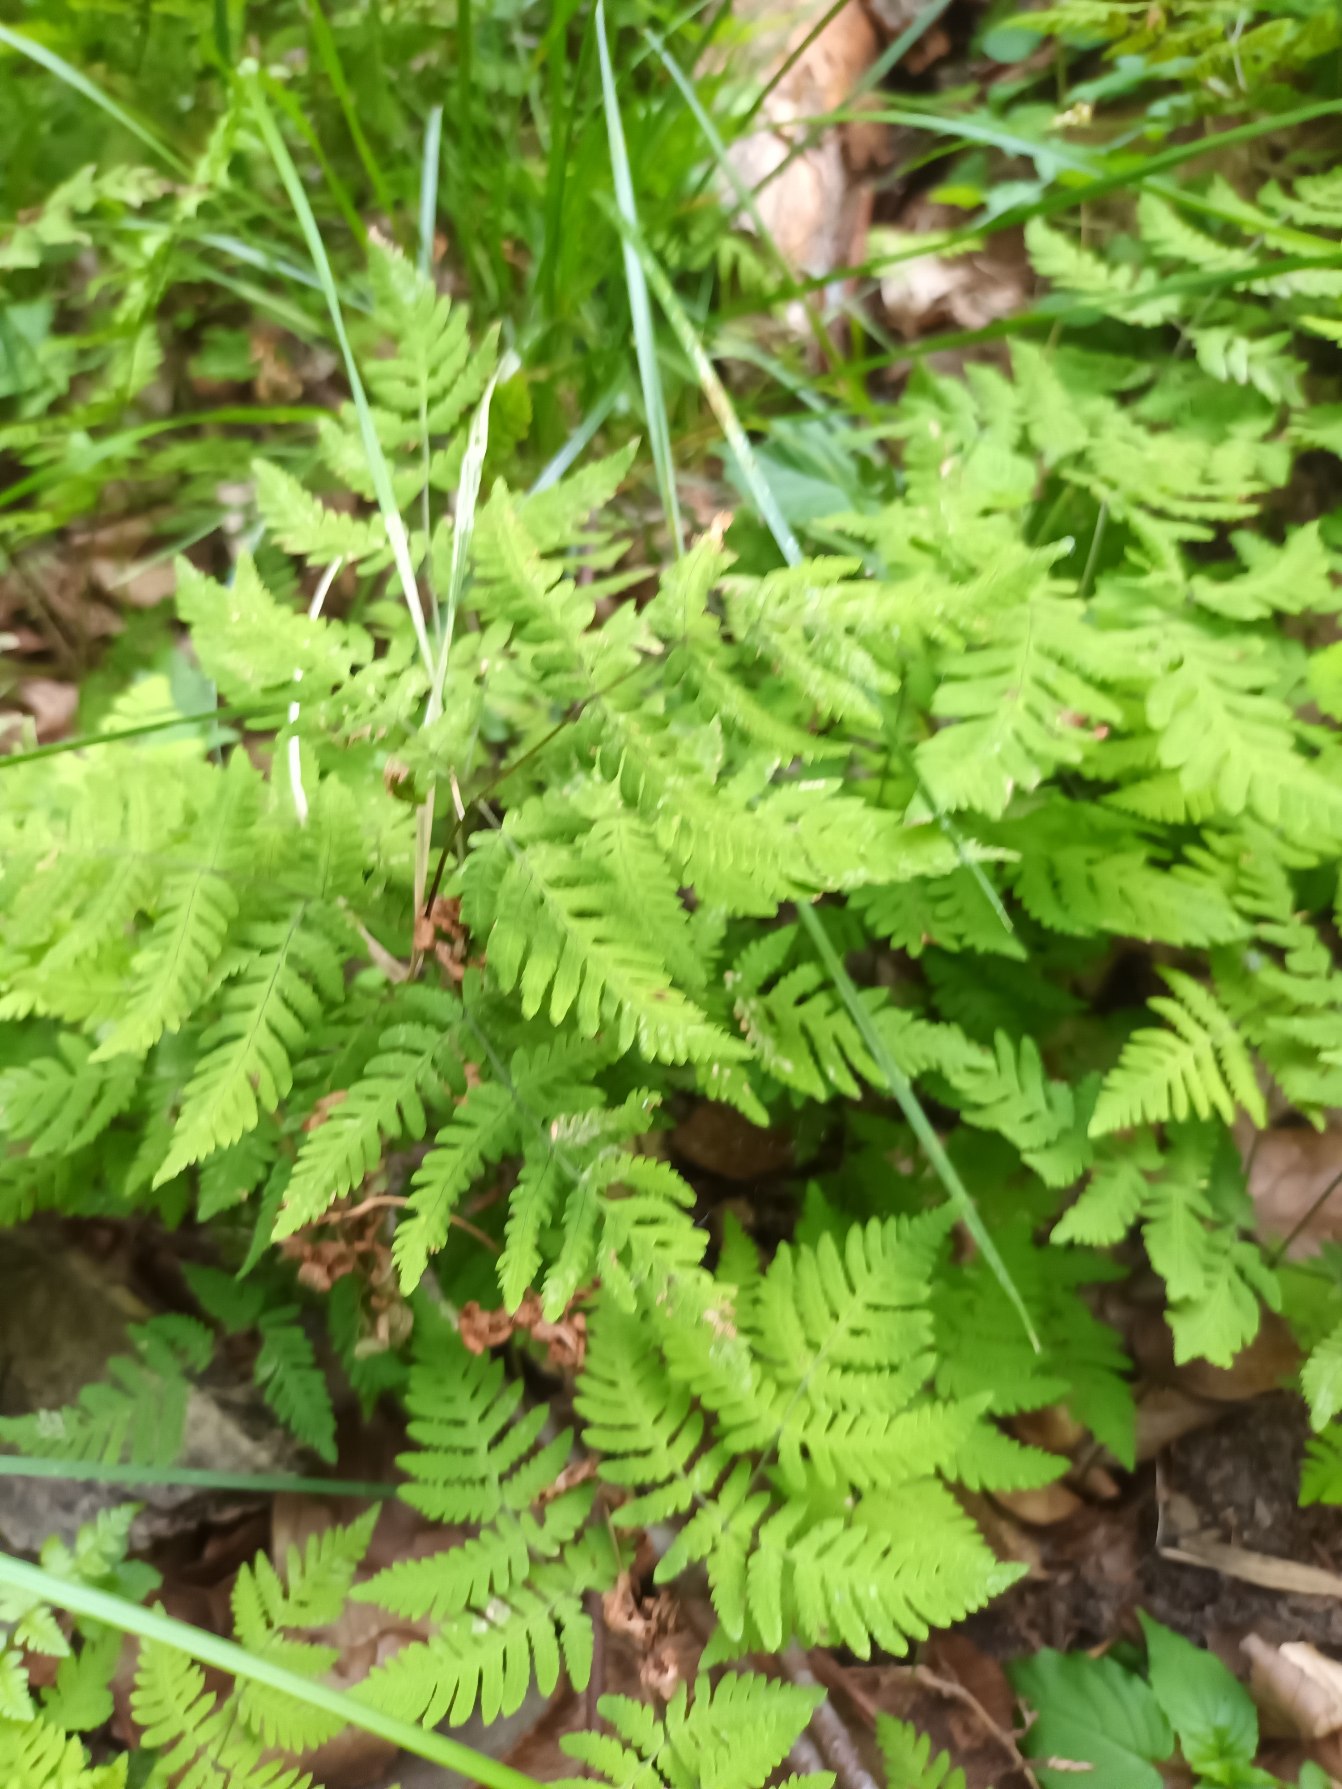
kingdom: Plantae
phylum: Tracheophyta
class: Polypodiopsida
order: Polypodiales
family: Cystopteridaceae
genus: Gymnocarpium
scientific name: Gymnocarpium dryopteris
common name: Tredelt egebregne
